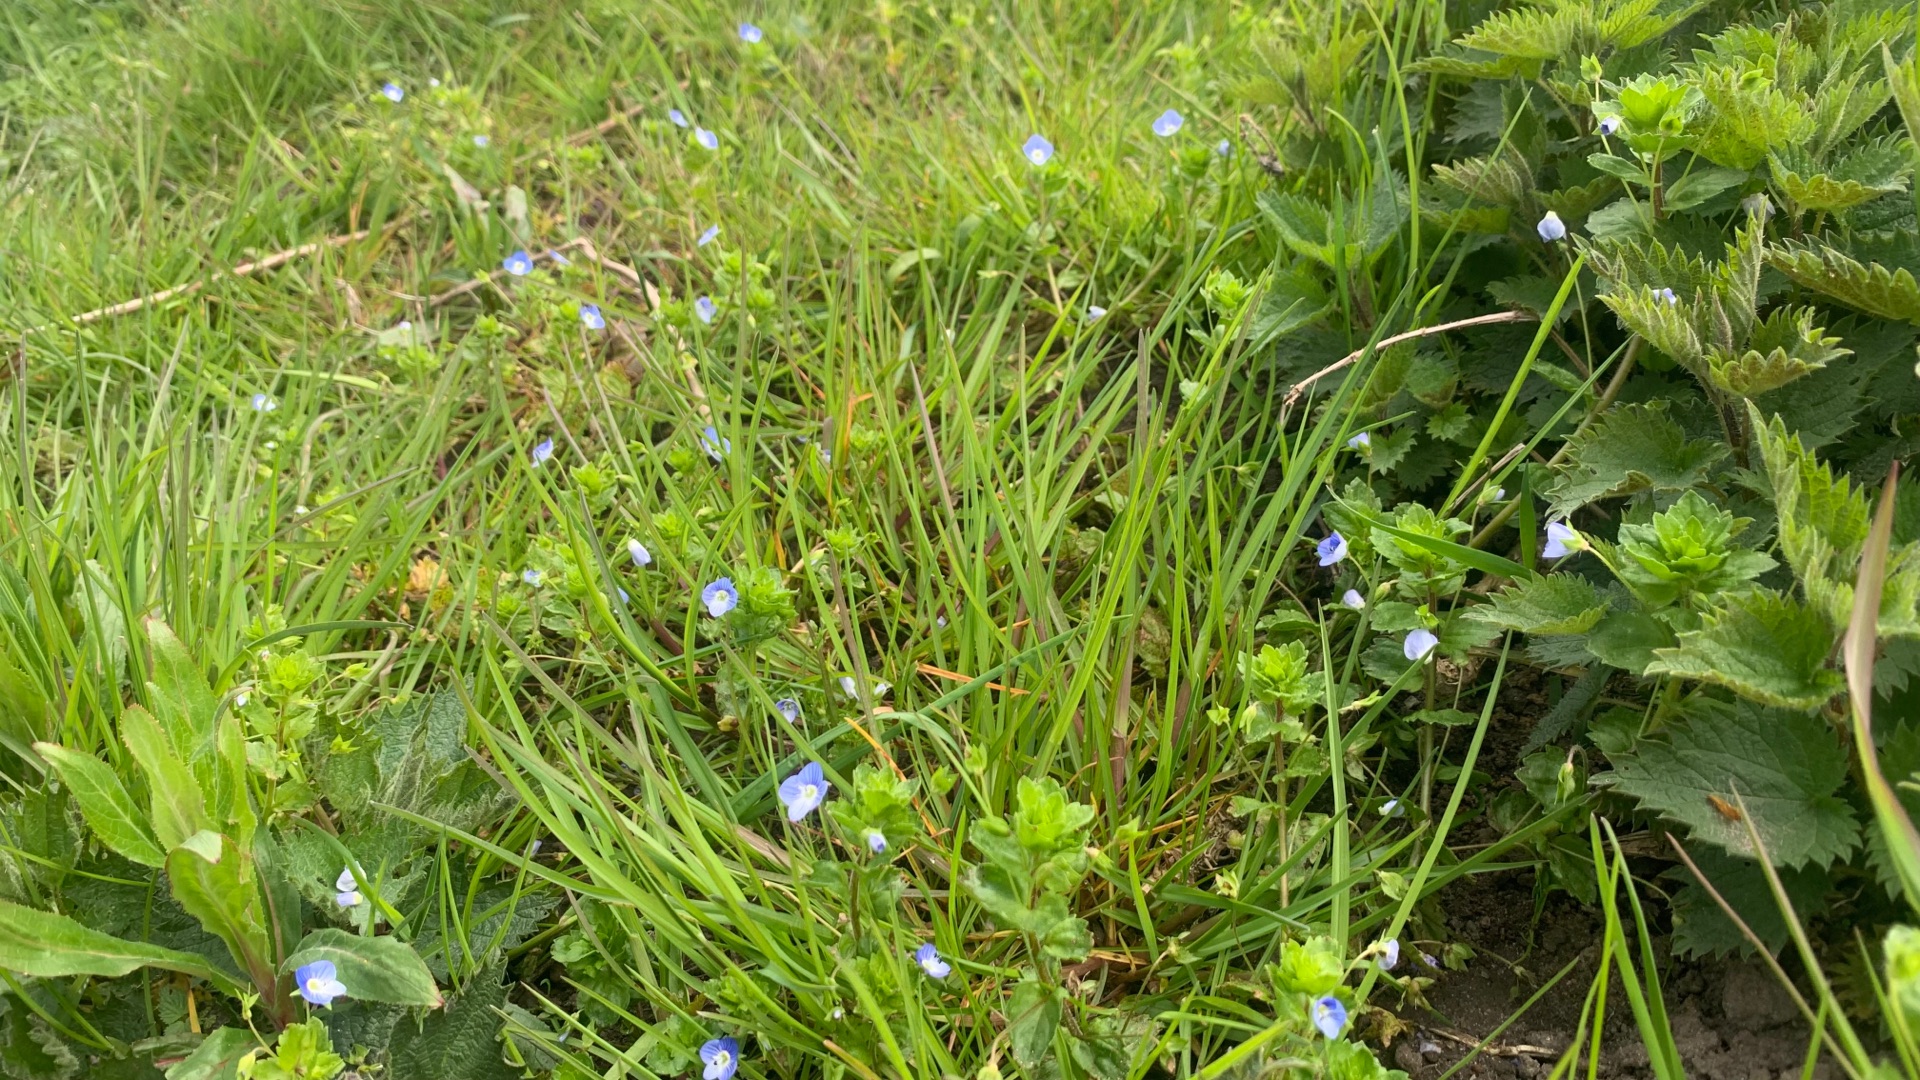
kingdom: Plantae
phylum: Tracheophyta
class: Magnoliopsida
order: Lamiales
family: Plantaginaceae
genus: Veronica
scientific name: Veronica persica
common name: Storkronet ærenpris
